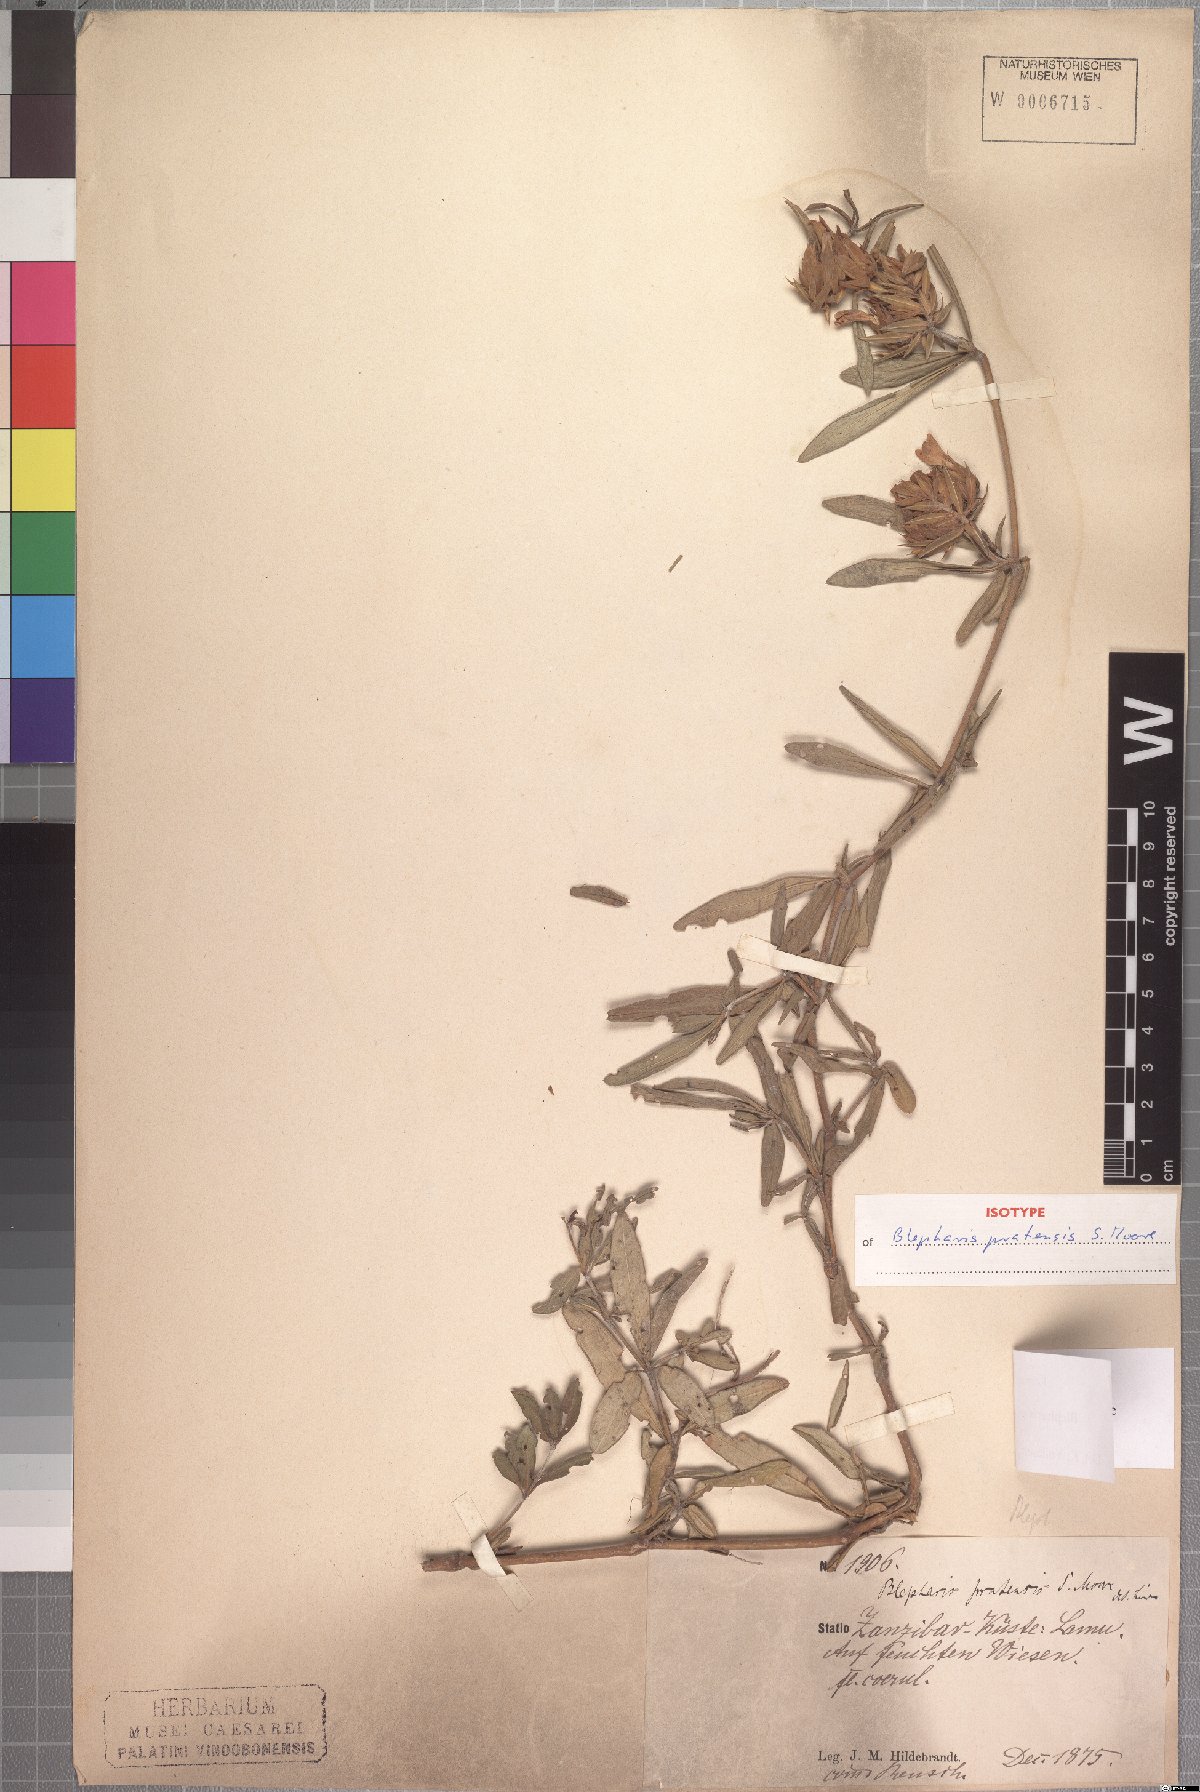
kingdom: Plantae
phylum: Tracheophyta
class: Magnoliopsida
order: Lamiales
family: Acanthaceae
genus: Blepharis
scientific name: Blepharis pratensis
